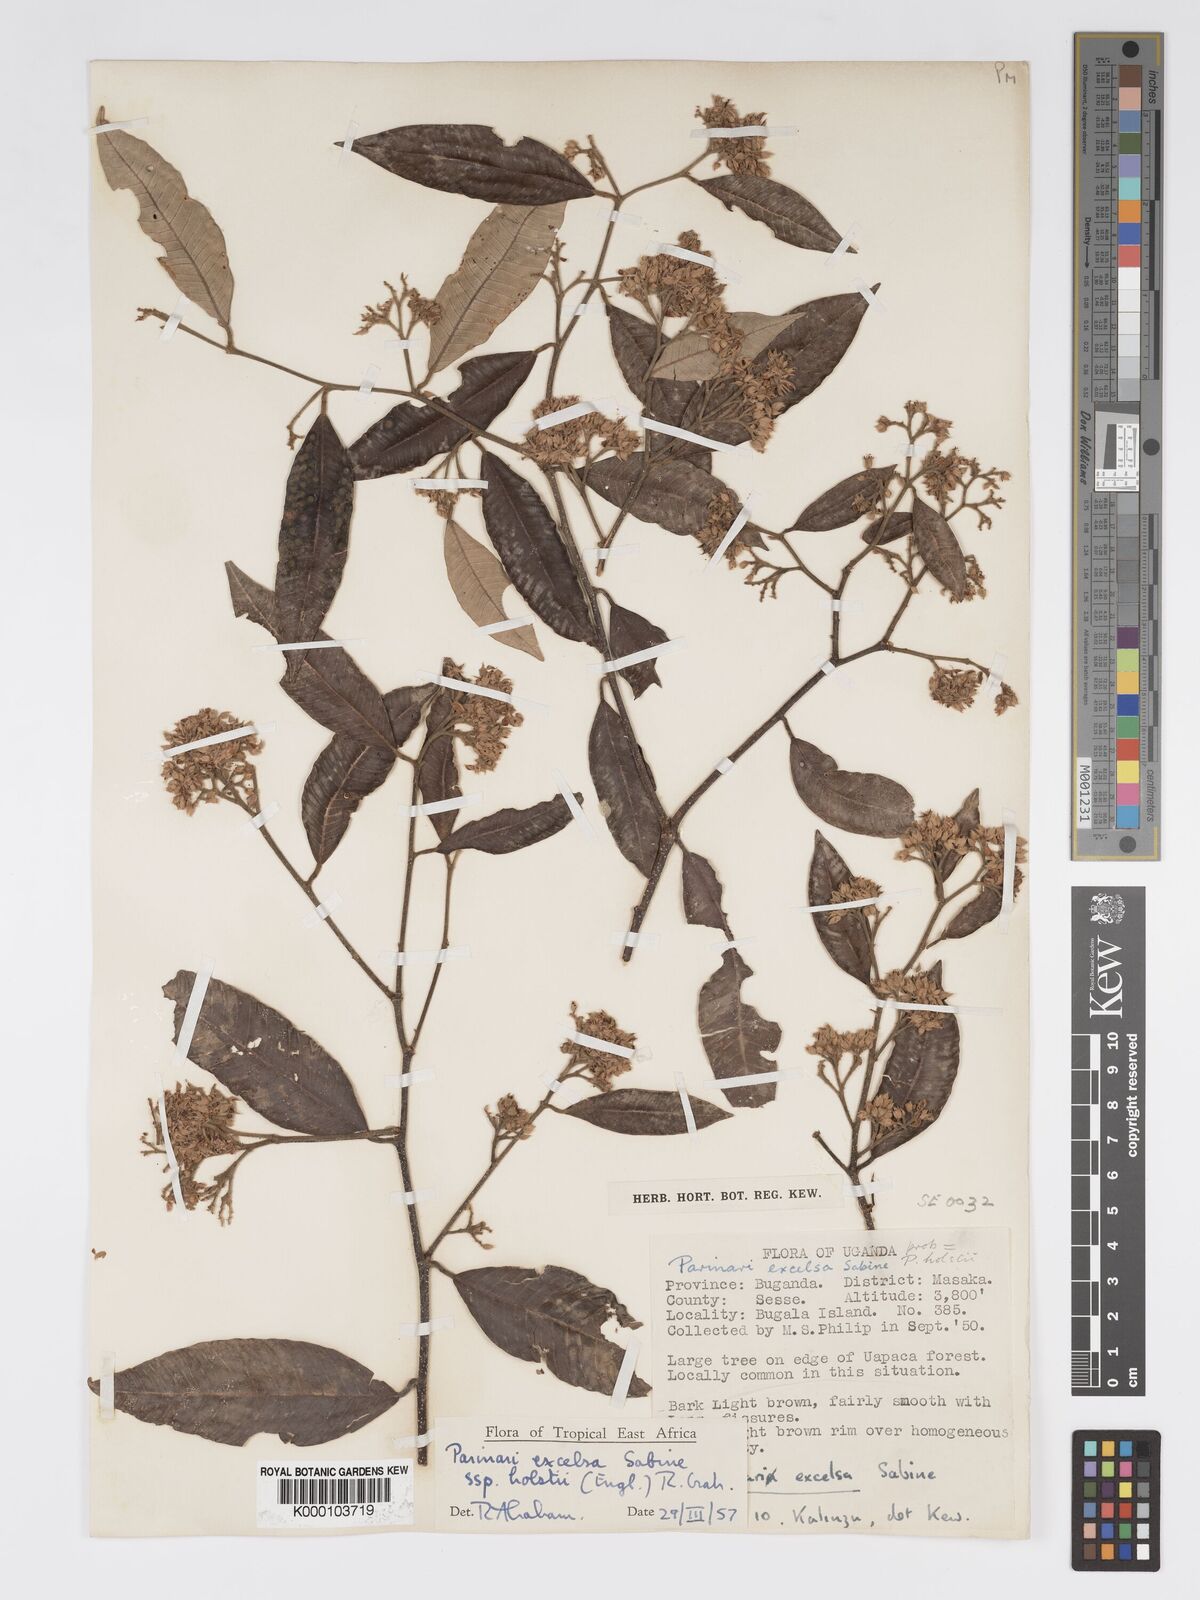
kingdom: Plantae
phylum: Tracheophyta
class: Magnoliopsida
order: Malpighiales
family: Chrysobalanaceae
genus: Parinari
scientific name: Parinari excelsa
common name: Guinea-plum
